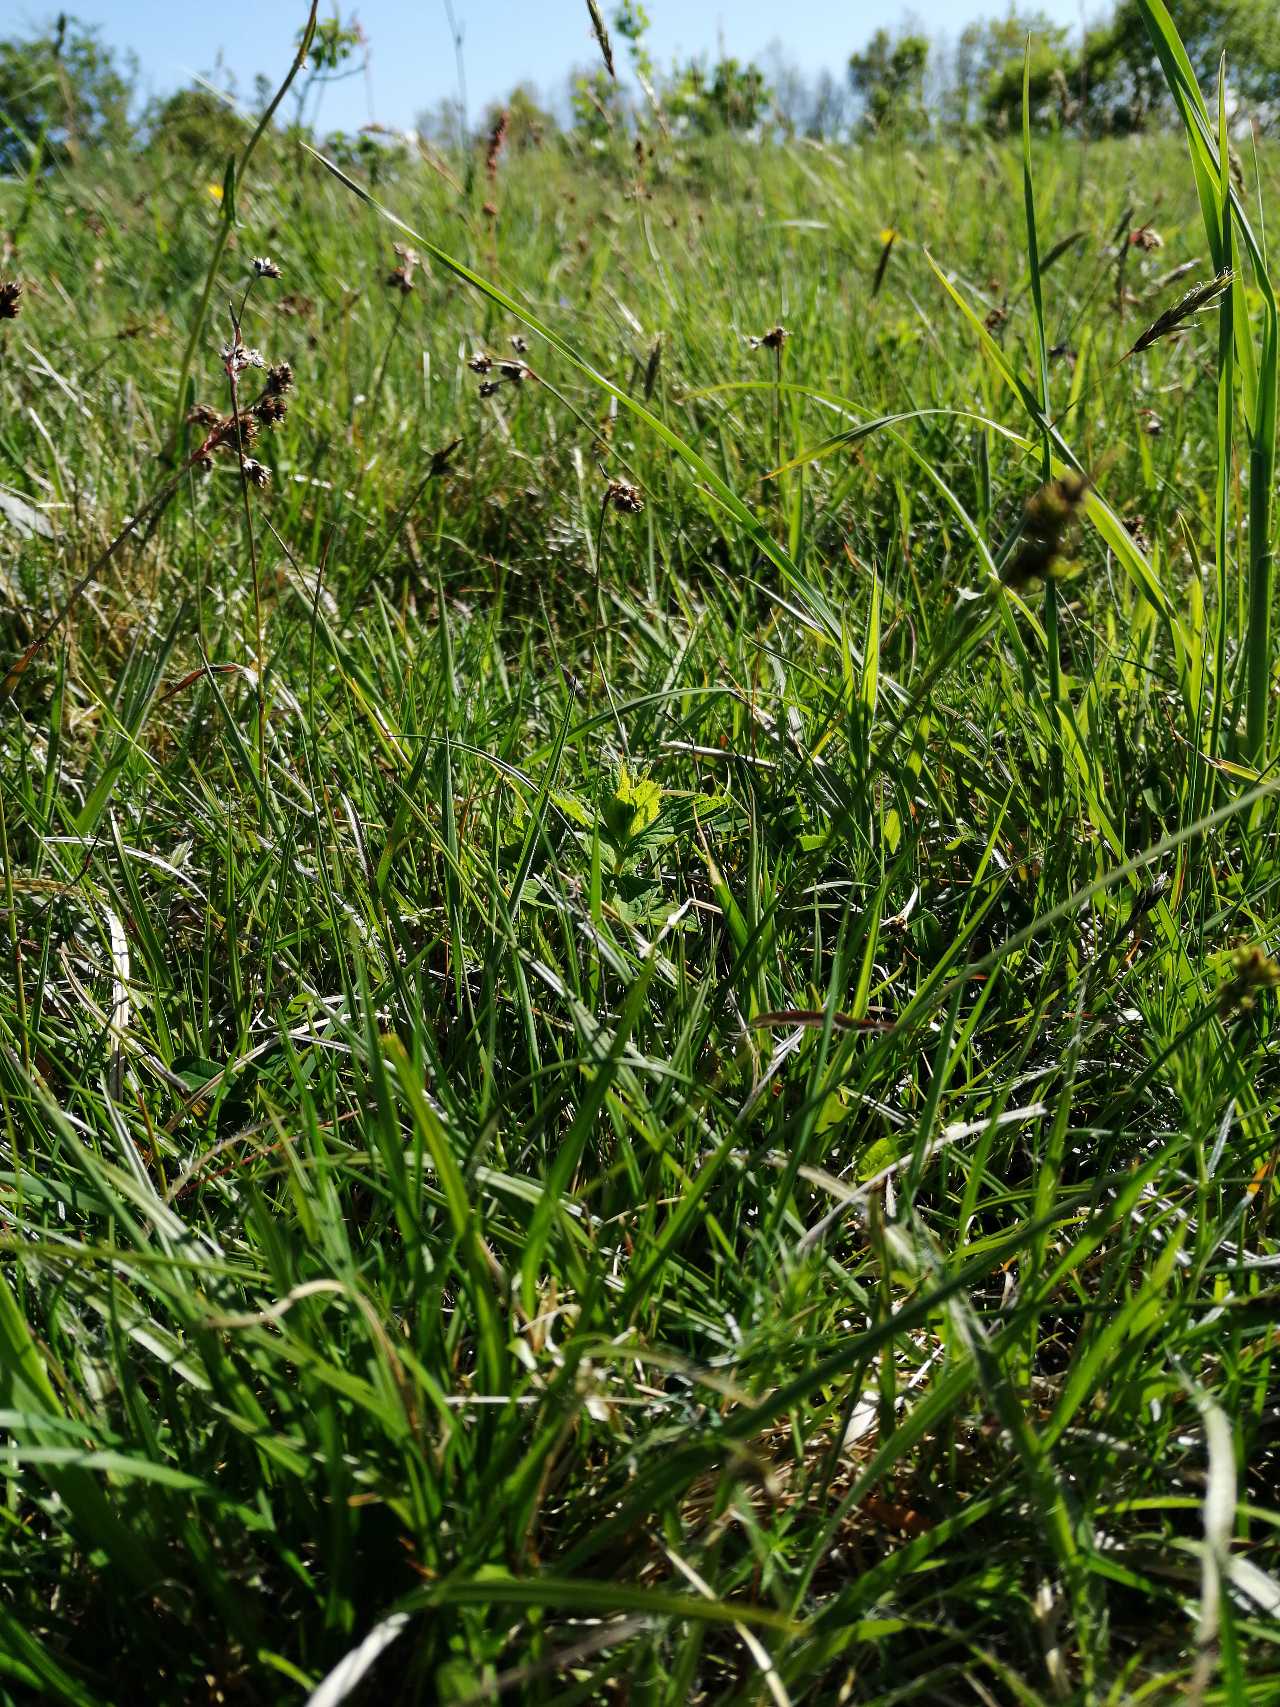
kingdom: Plantae
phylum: Tracheophyta
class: Liliopsida
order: Poales
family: Cyperaceae
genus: Carex
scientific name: Carex pilulifera
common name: Pille-star
